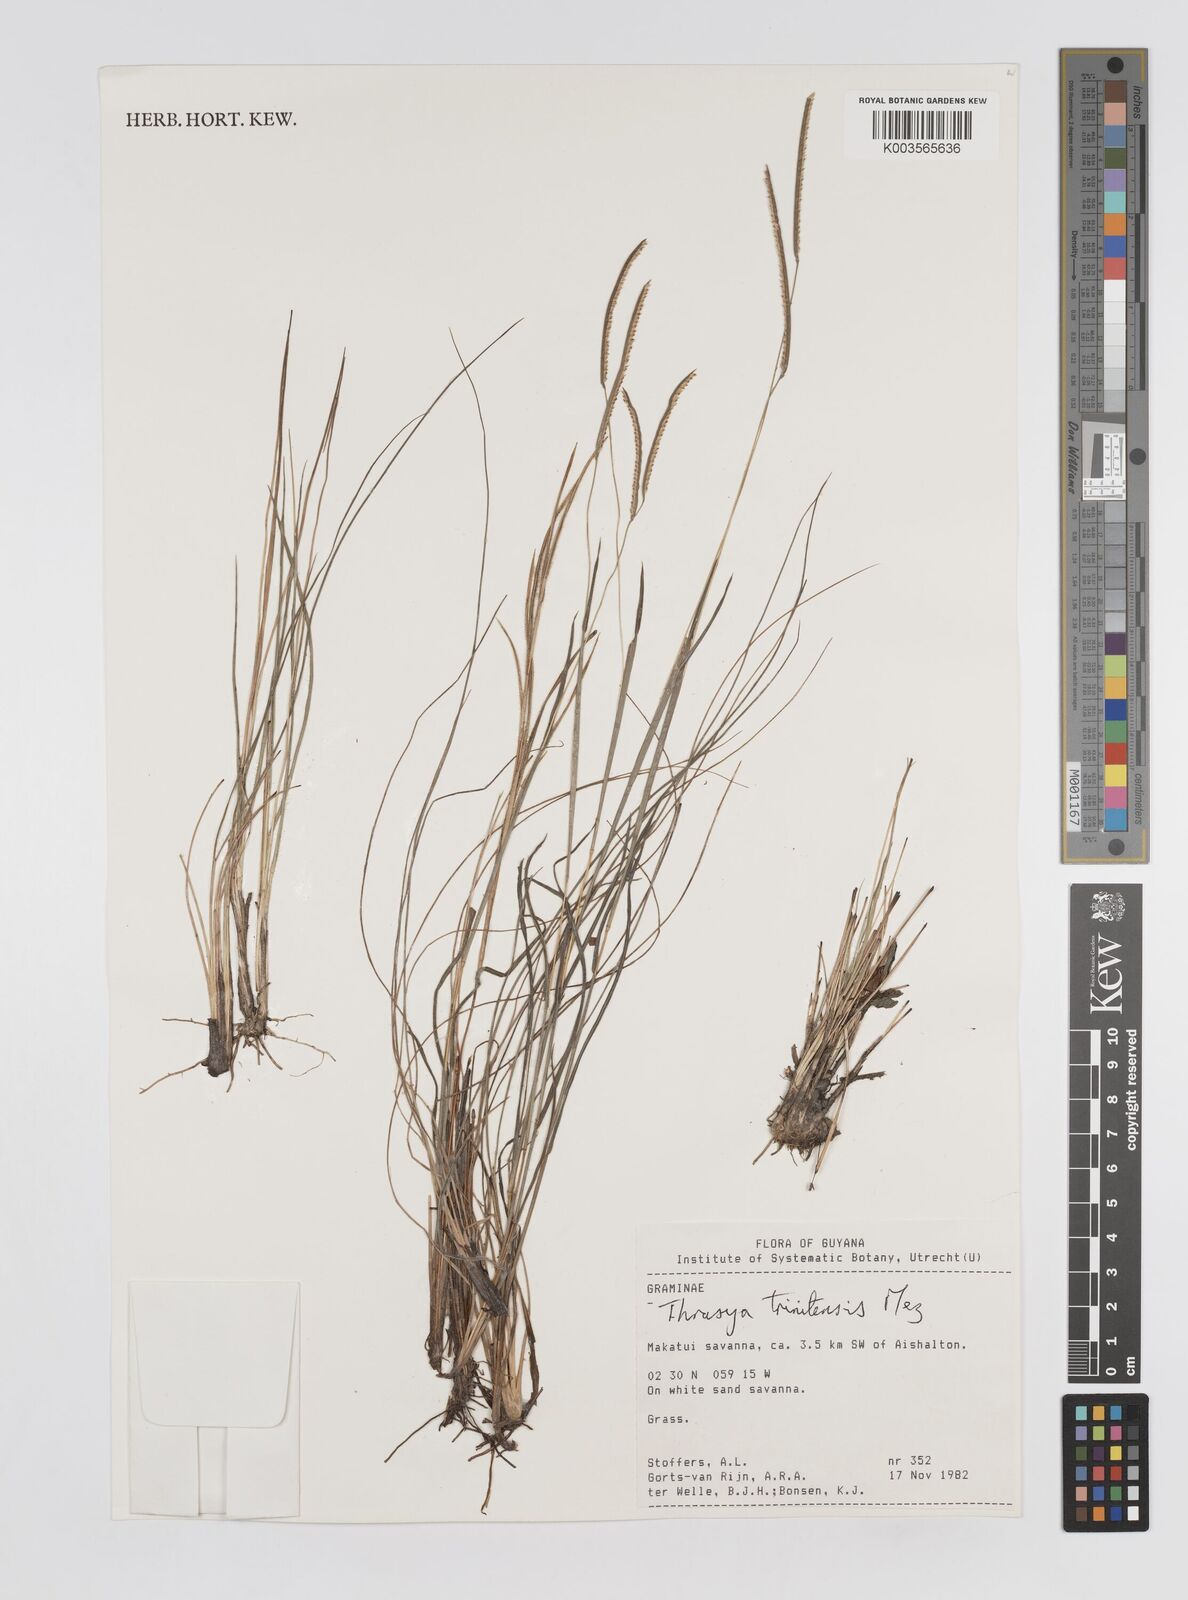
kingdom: Plantae
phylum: Tracheophyta
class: Liliopsida
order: Poales
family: Poaceae
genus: Paspalum
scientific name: Paspalum thrasyoides
